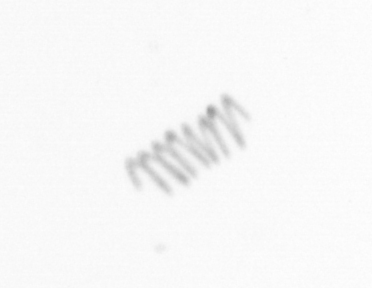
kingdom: Chromista
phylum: Ochrophyta
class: Bacillariophyceae
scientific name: Bacillariophyceae
